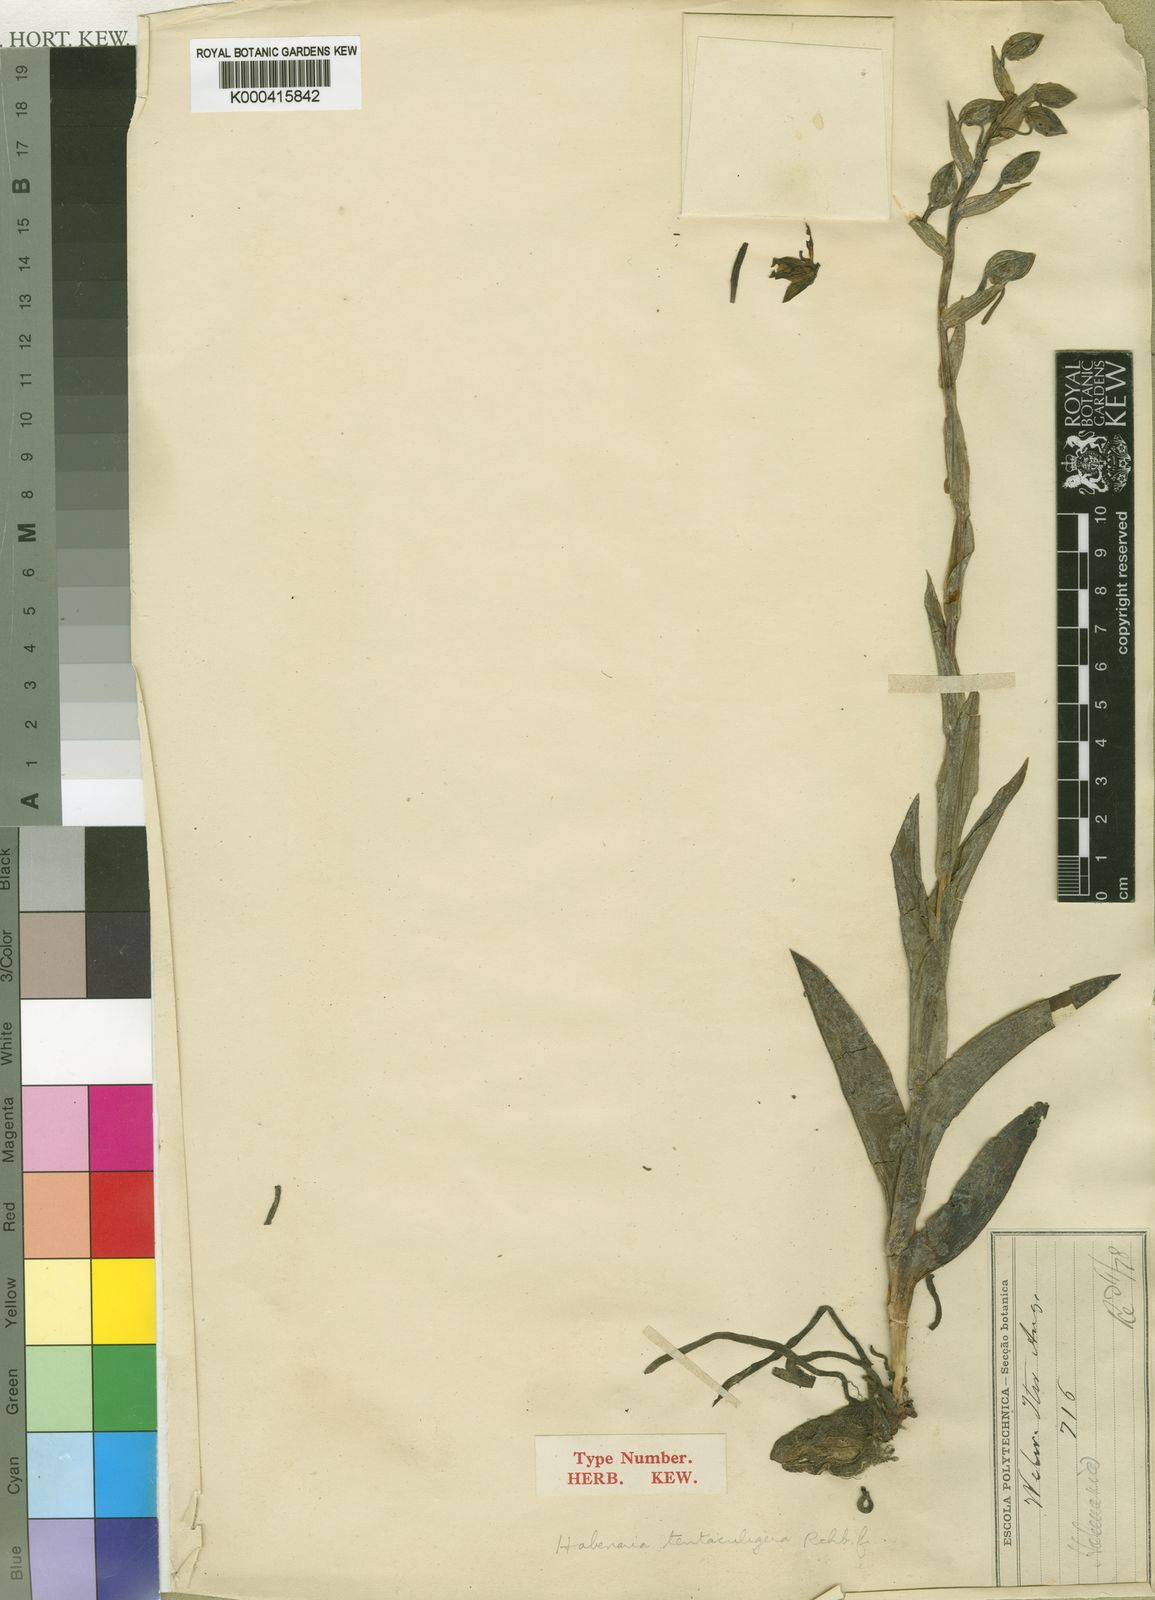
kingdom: Plantae
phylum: Tracheophyta
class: Liliopsida
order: Asparagales
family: Orchidaceae
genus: Habenaria
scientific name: Habenaria tentaculigera
